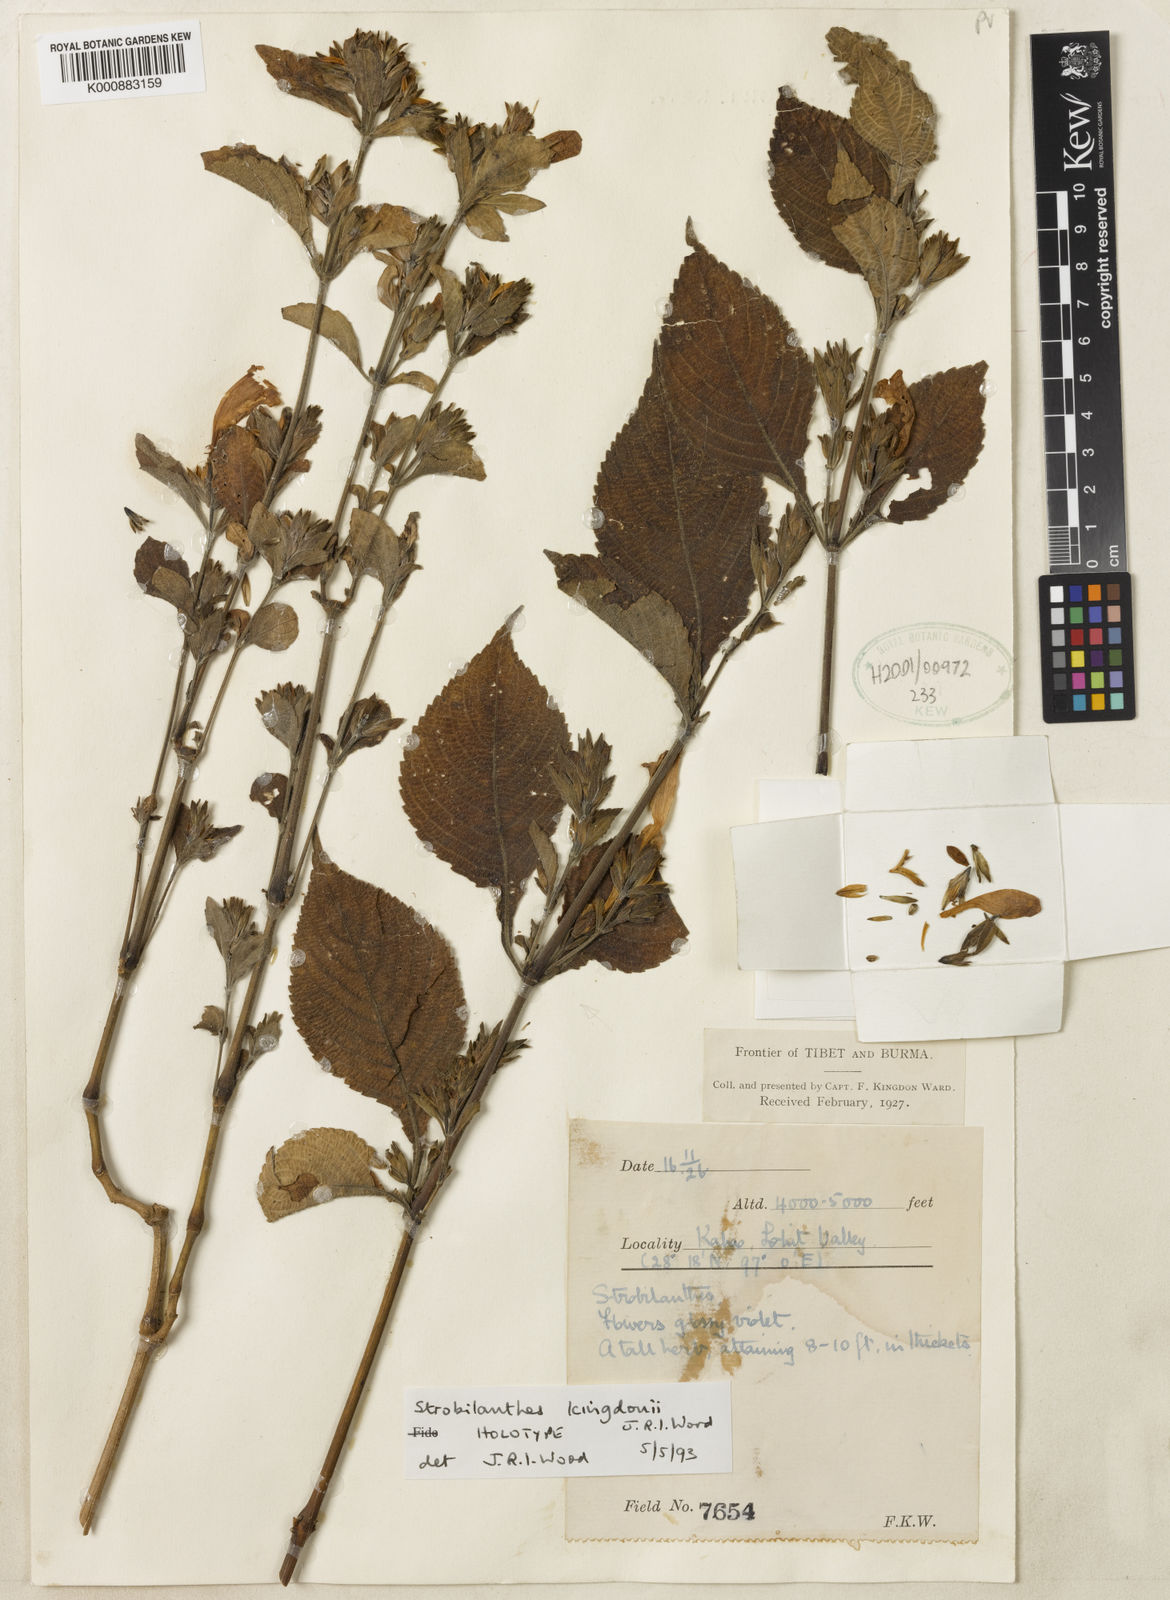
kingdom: Plantae
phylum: Tracheophyta
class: Magnoliopsida
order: Lamiales
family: Acanthaceae
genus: Strobilanthes
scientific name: Strobilanthes kingdonii
